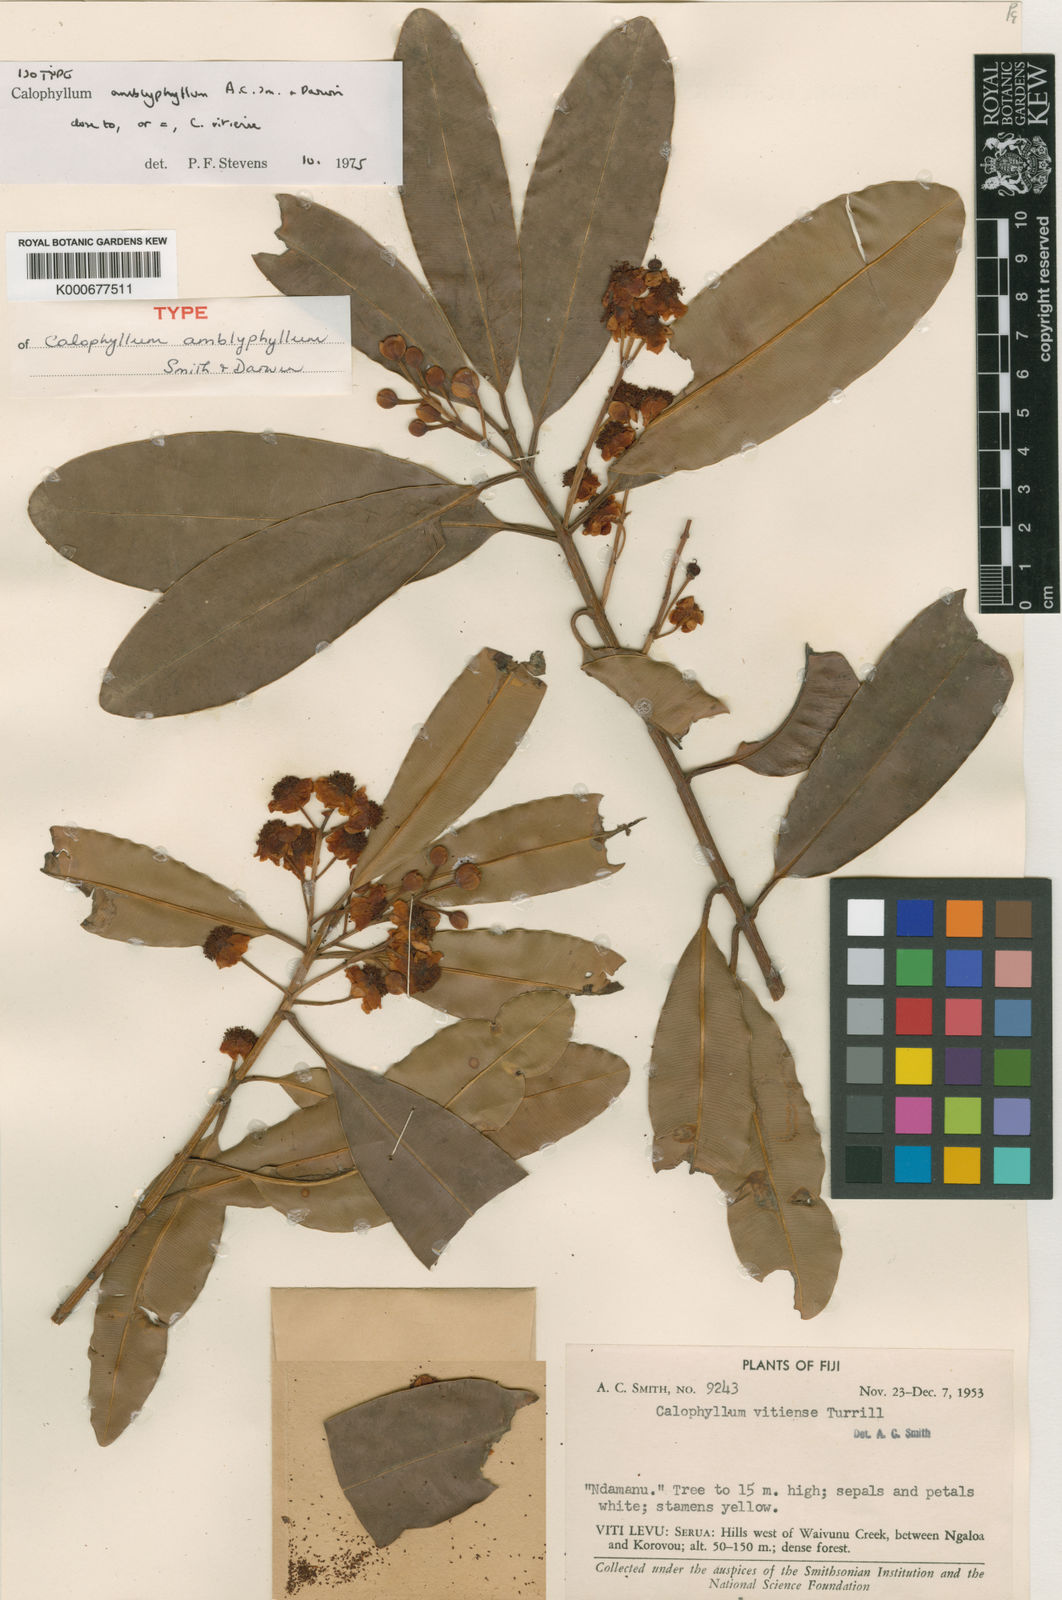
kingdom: Plantae
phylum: Tracheophyta
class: Magnoliopsida
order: Malpighiales
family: Calophyllaceae
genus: Calophyllum
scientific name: Calophyllum vitiense
